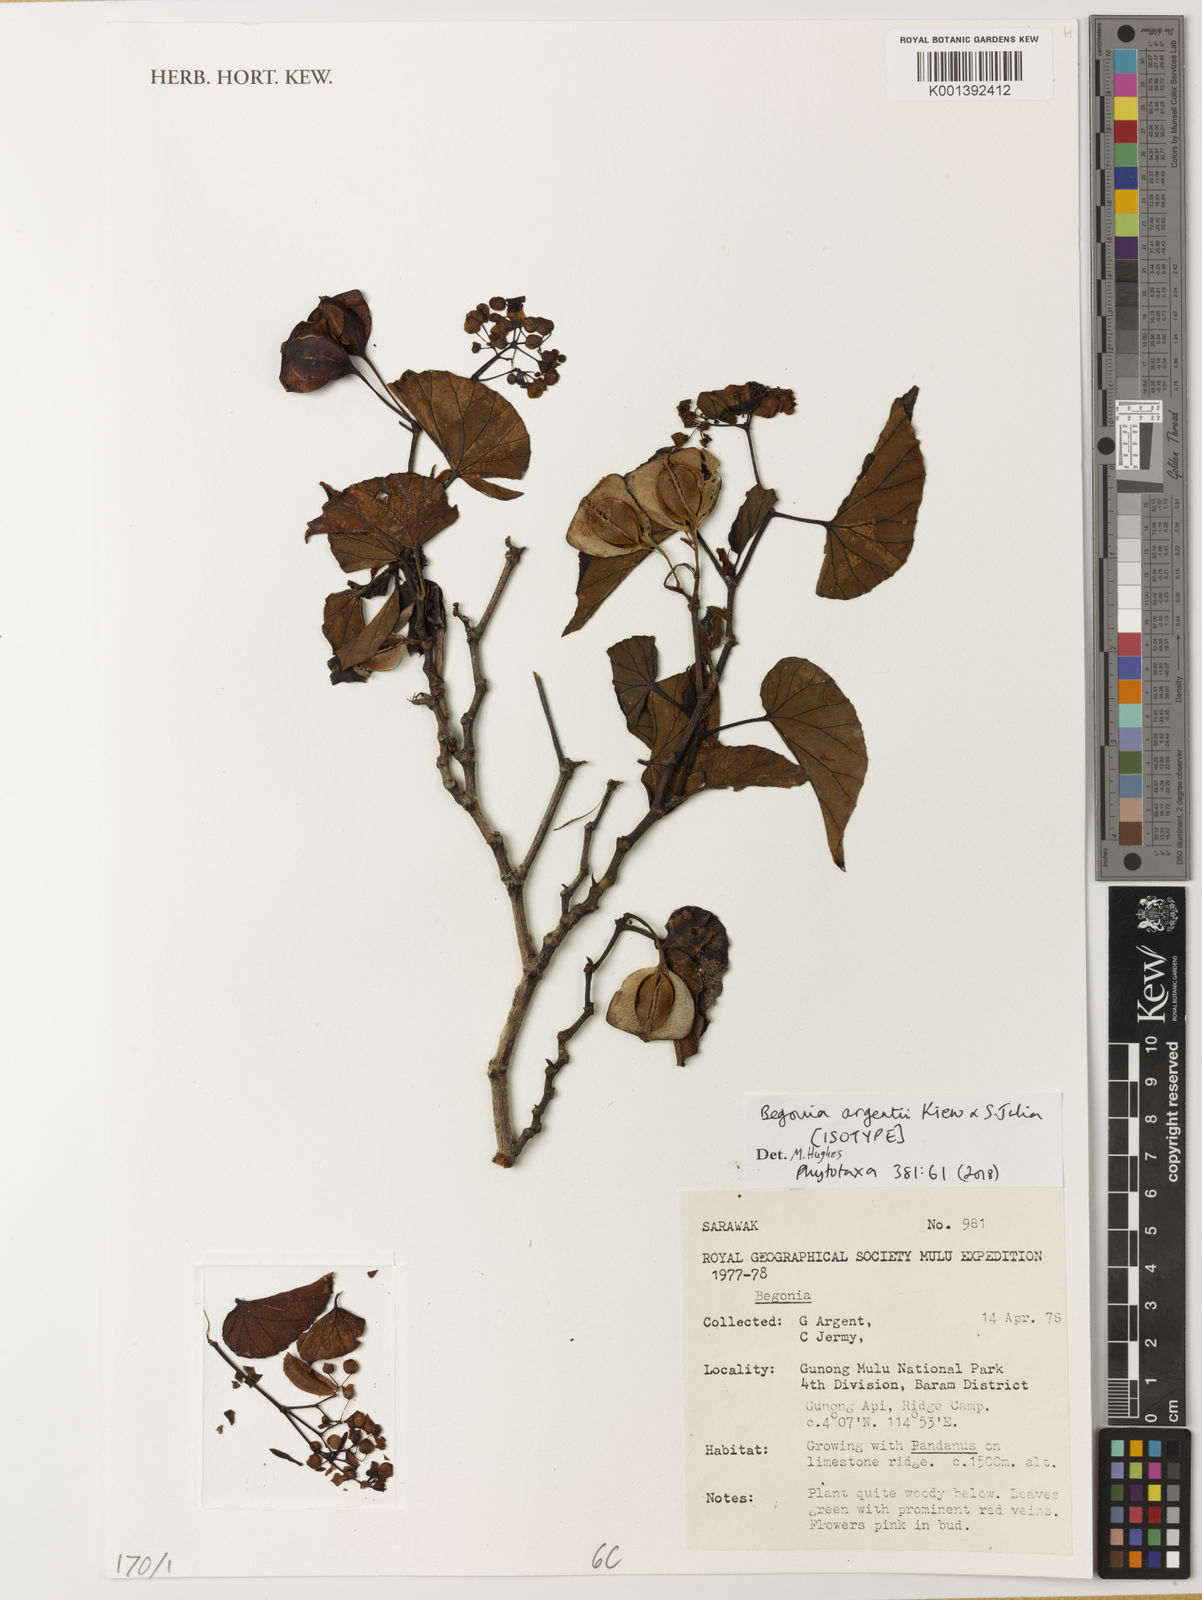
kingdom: Plantae
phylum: Tracheophyta
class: Magnoliopsida
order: Cucurbitales
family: Begoniaceae
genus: Begonia
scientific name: Begonia argentii
